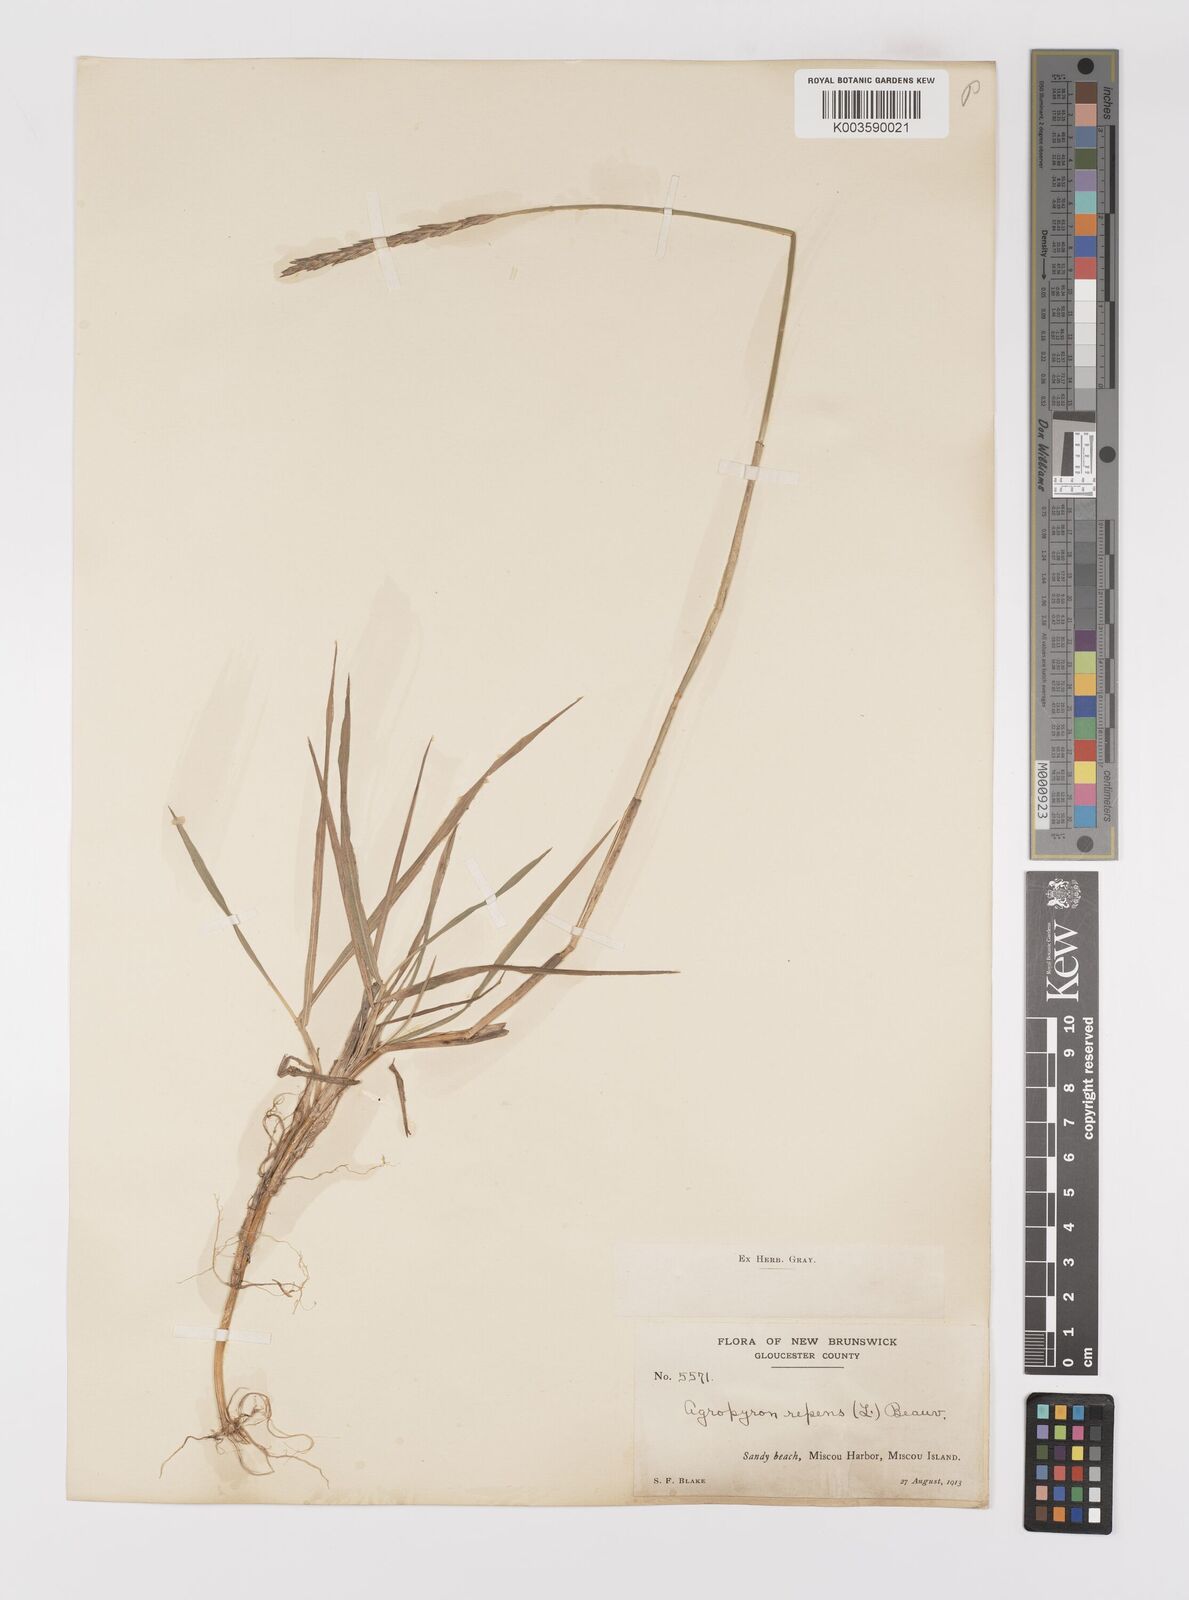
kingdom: Plantae
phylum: Tracheophyta
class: Liliopsida
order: Poales
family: Poaceae
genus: Elymus
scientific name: Elymus repens
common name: Quackgrass
